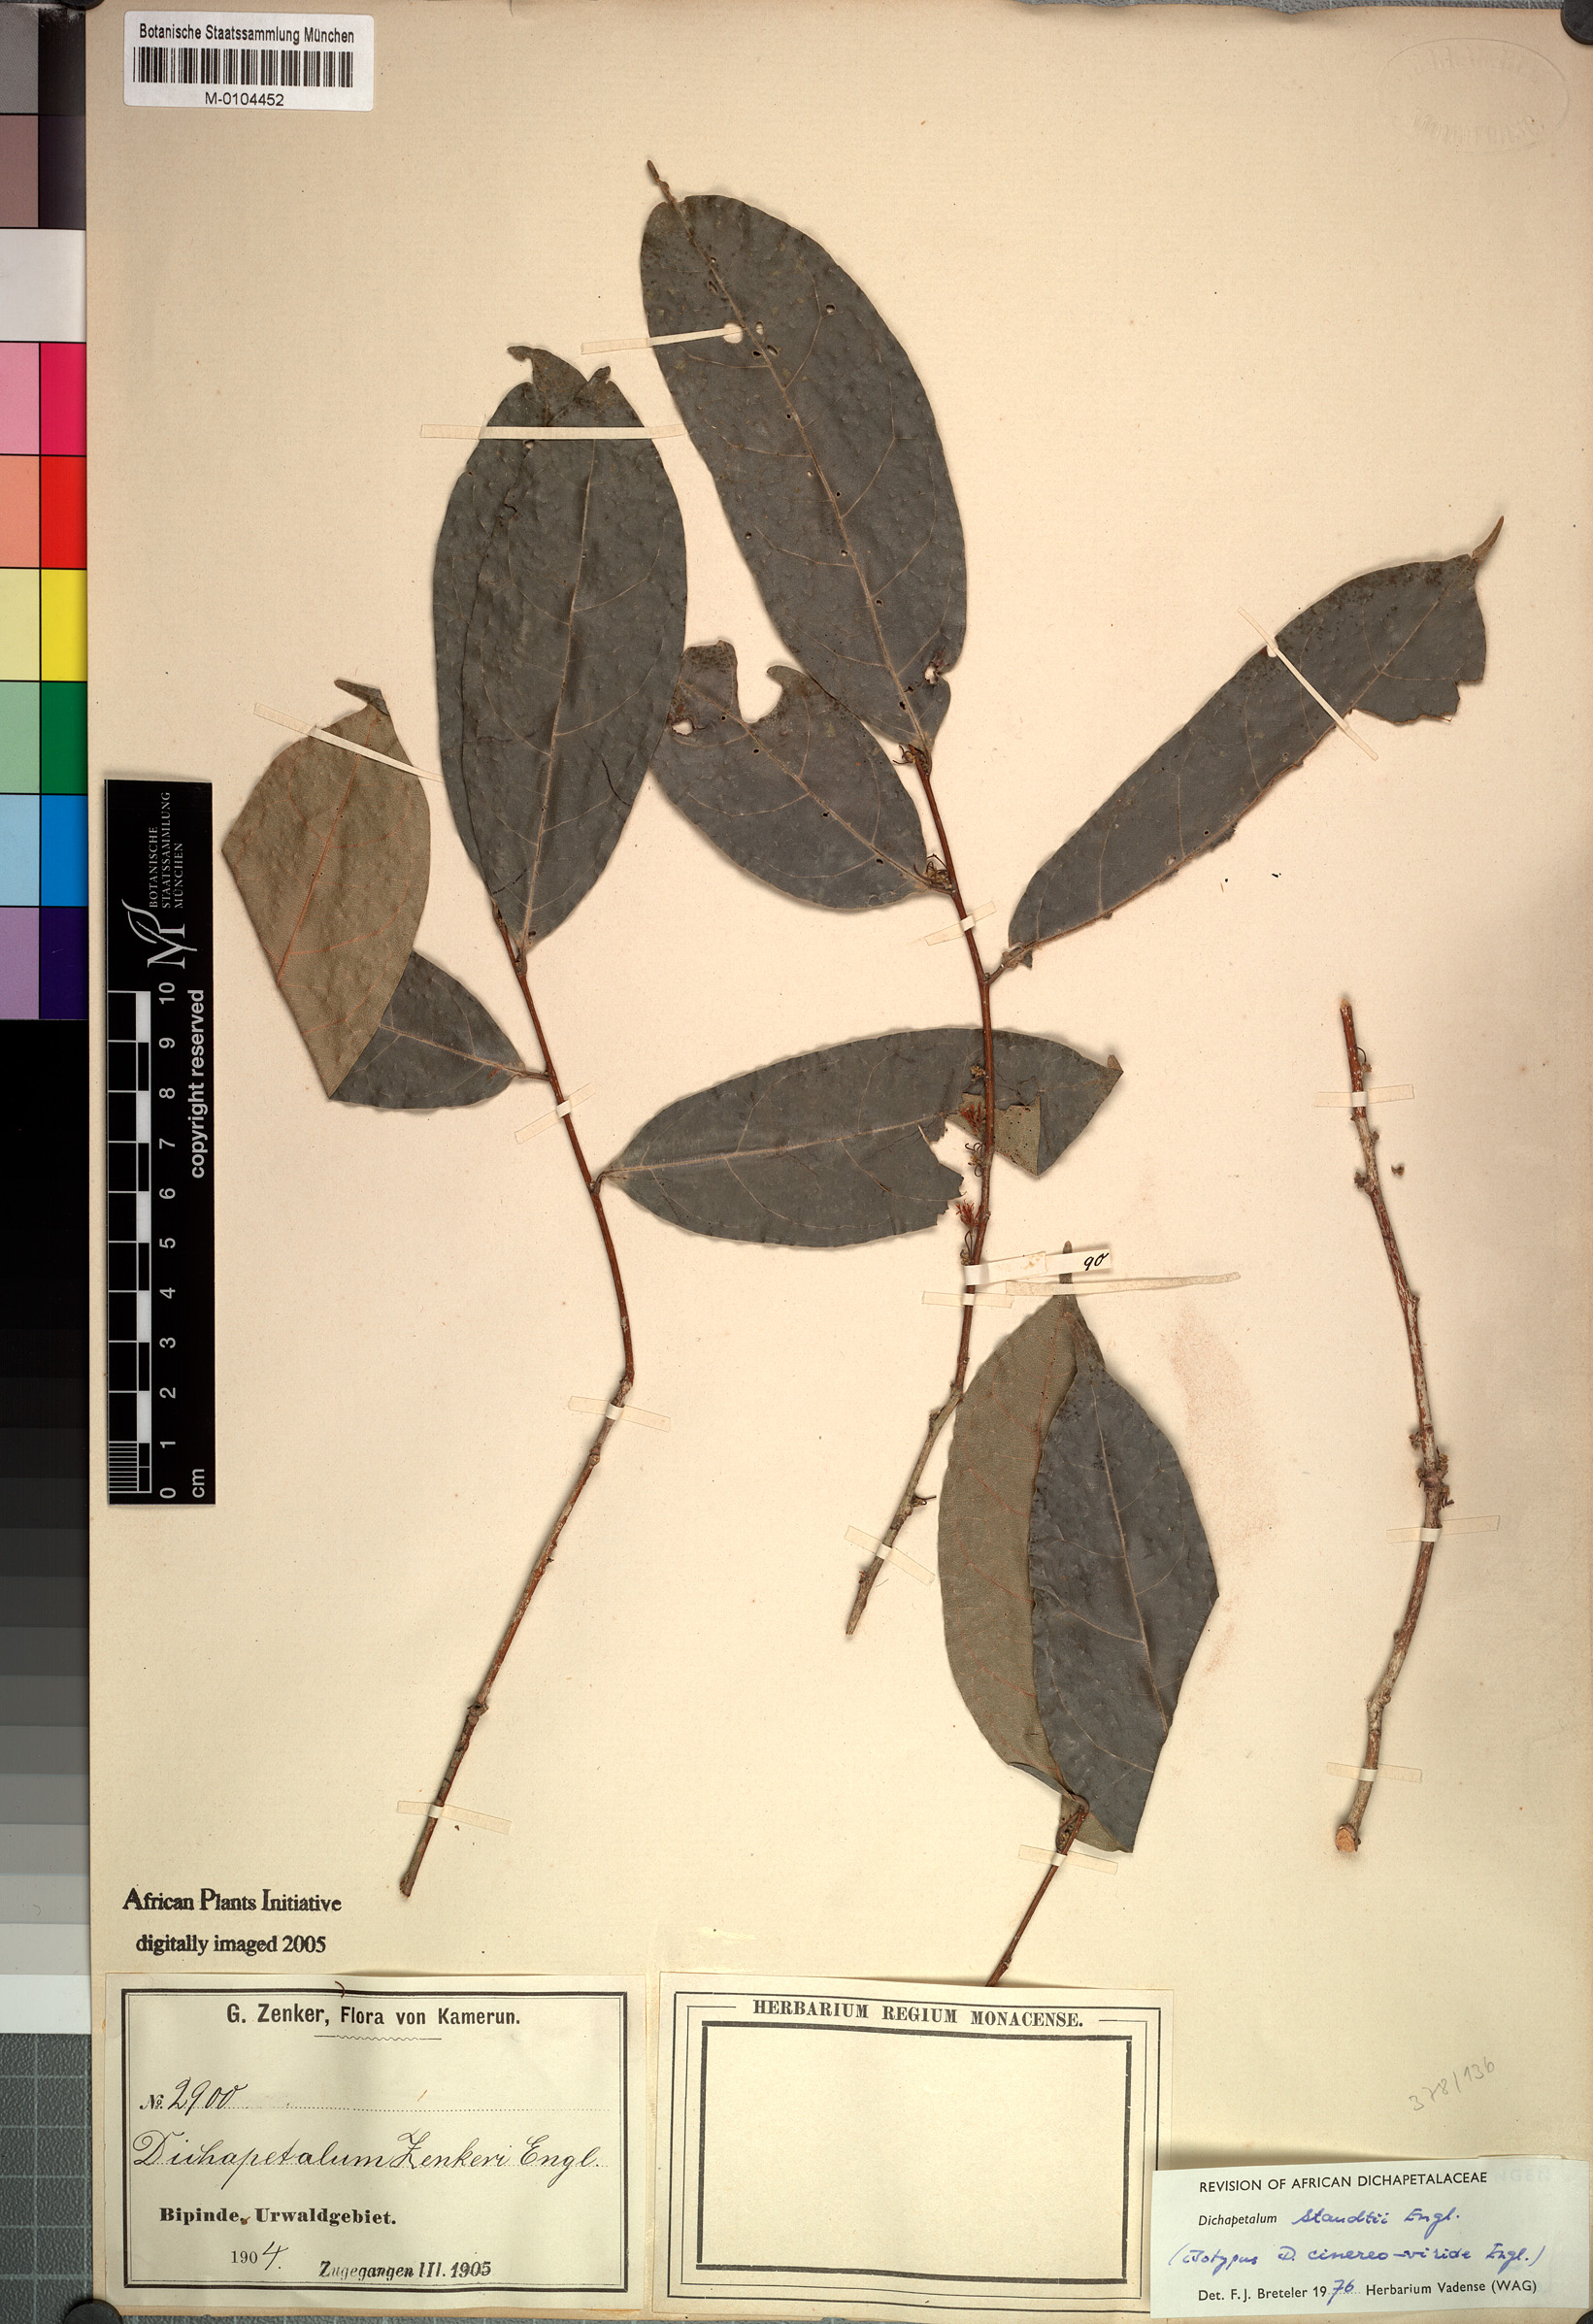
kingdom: Plantae
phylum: Tracheophyta
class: Magnoliopsida
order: Malpighiales
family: Dichapetalaceae
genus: Dichapetalum
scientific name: Dichapetalum staudtii
